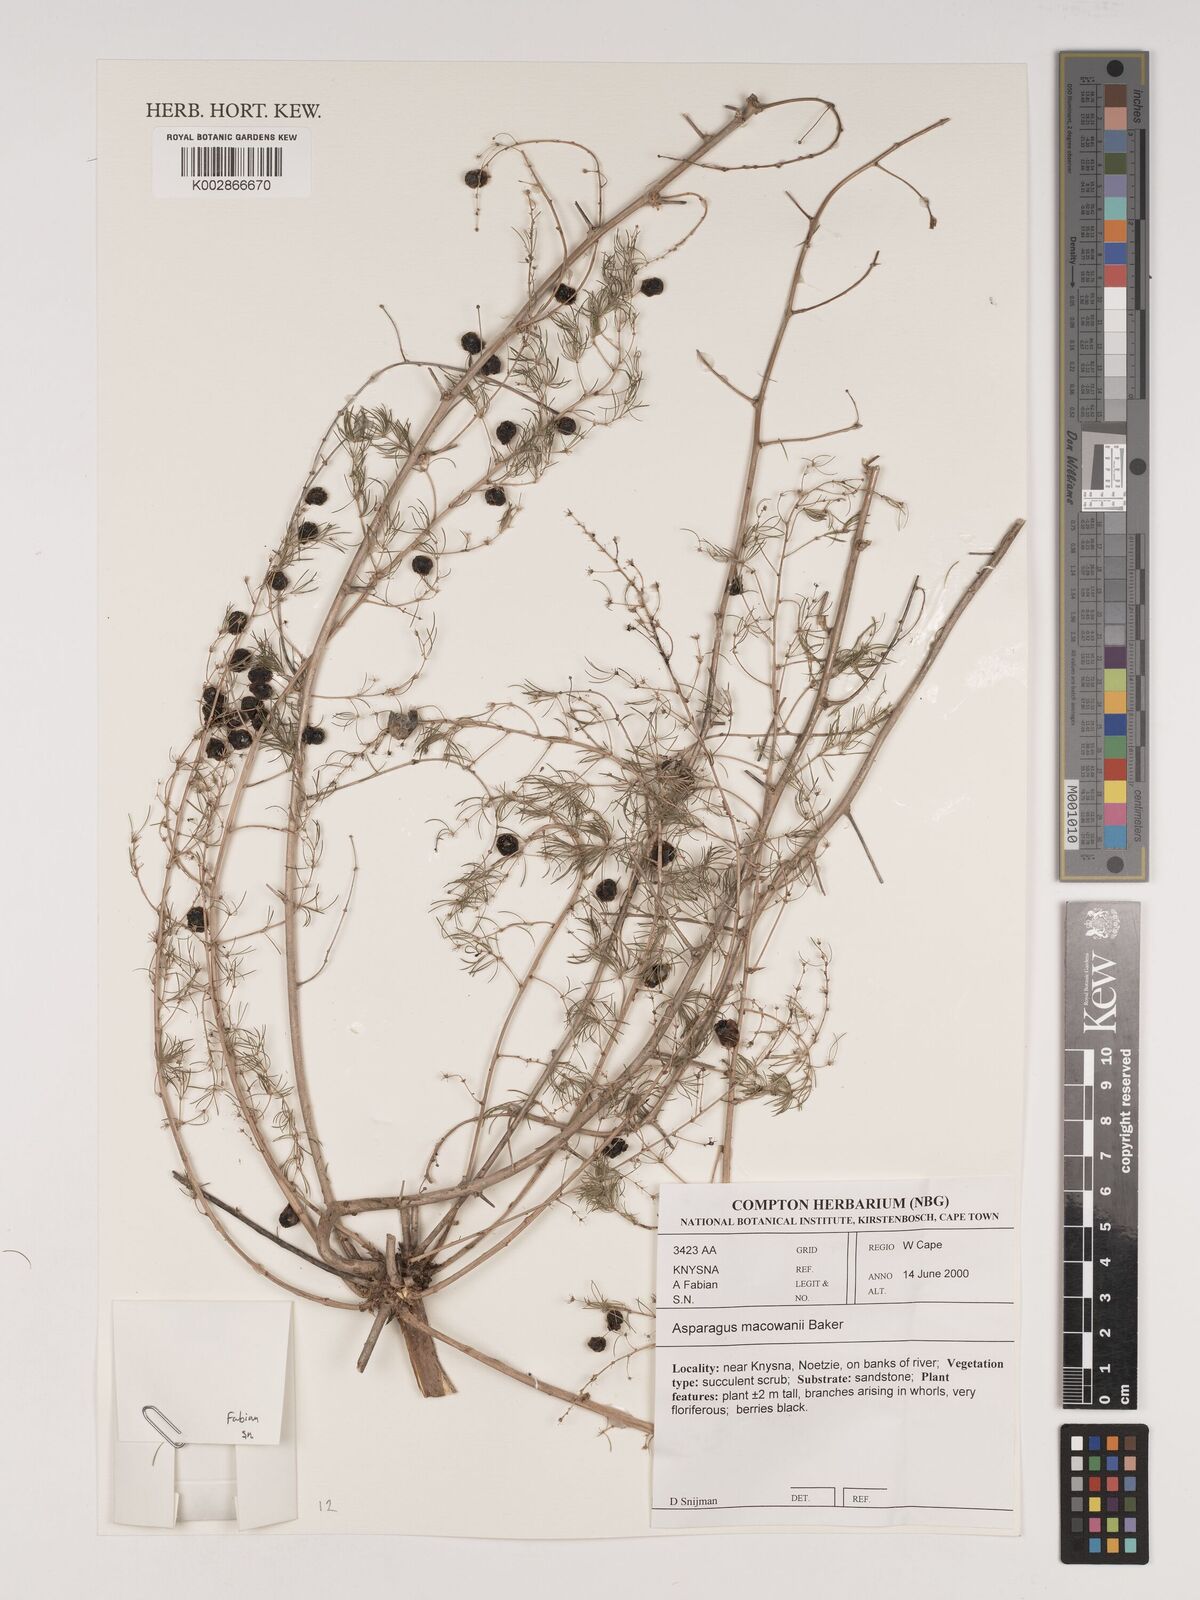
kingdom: Plantae
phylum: Tracheophyta
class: Liliopsida
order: Asparagales
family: Asparagaceae
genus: Asparagus
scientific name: Asparagus macowanii
